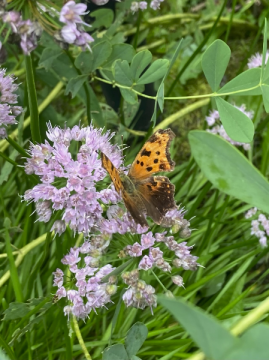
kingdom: Animalia
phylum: Arthropoda
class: Insecta
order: Lepidoptera
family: Nymphalidae
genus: Polygonia
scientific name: Polygonia comma
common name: Eastern Comma
